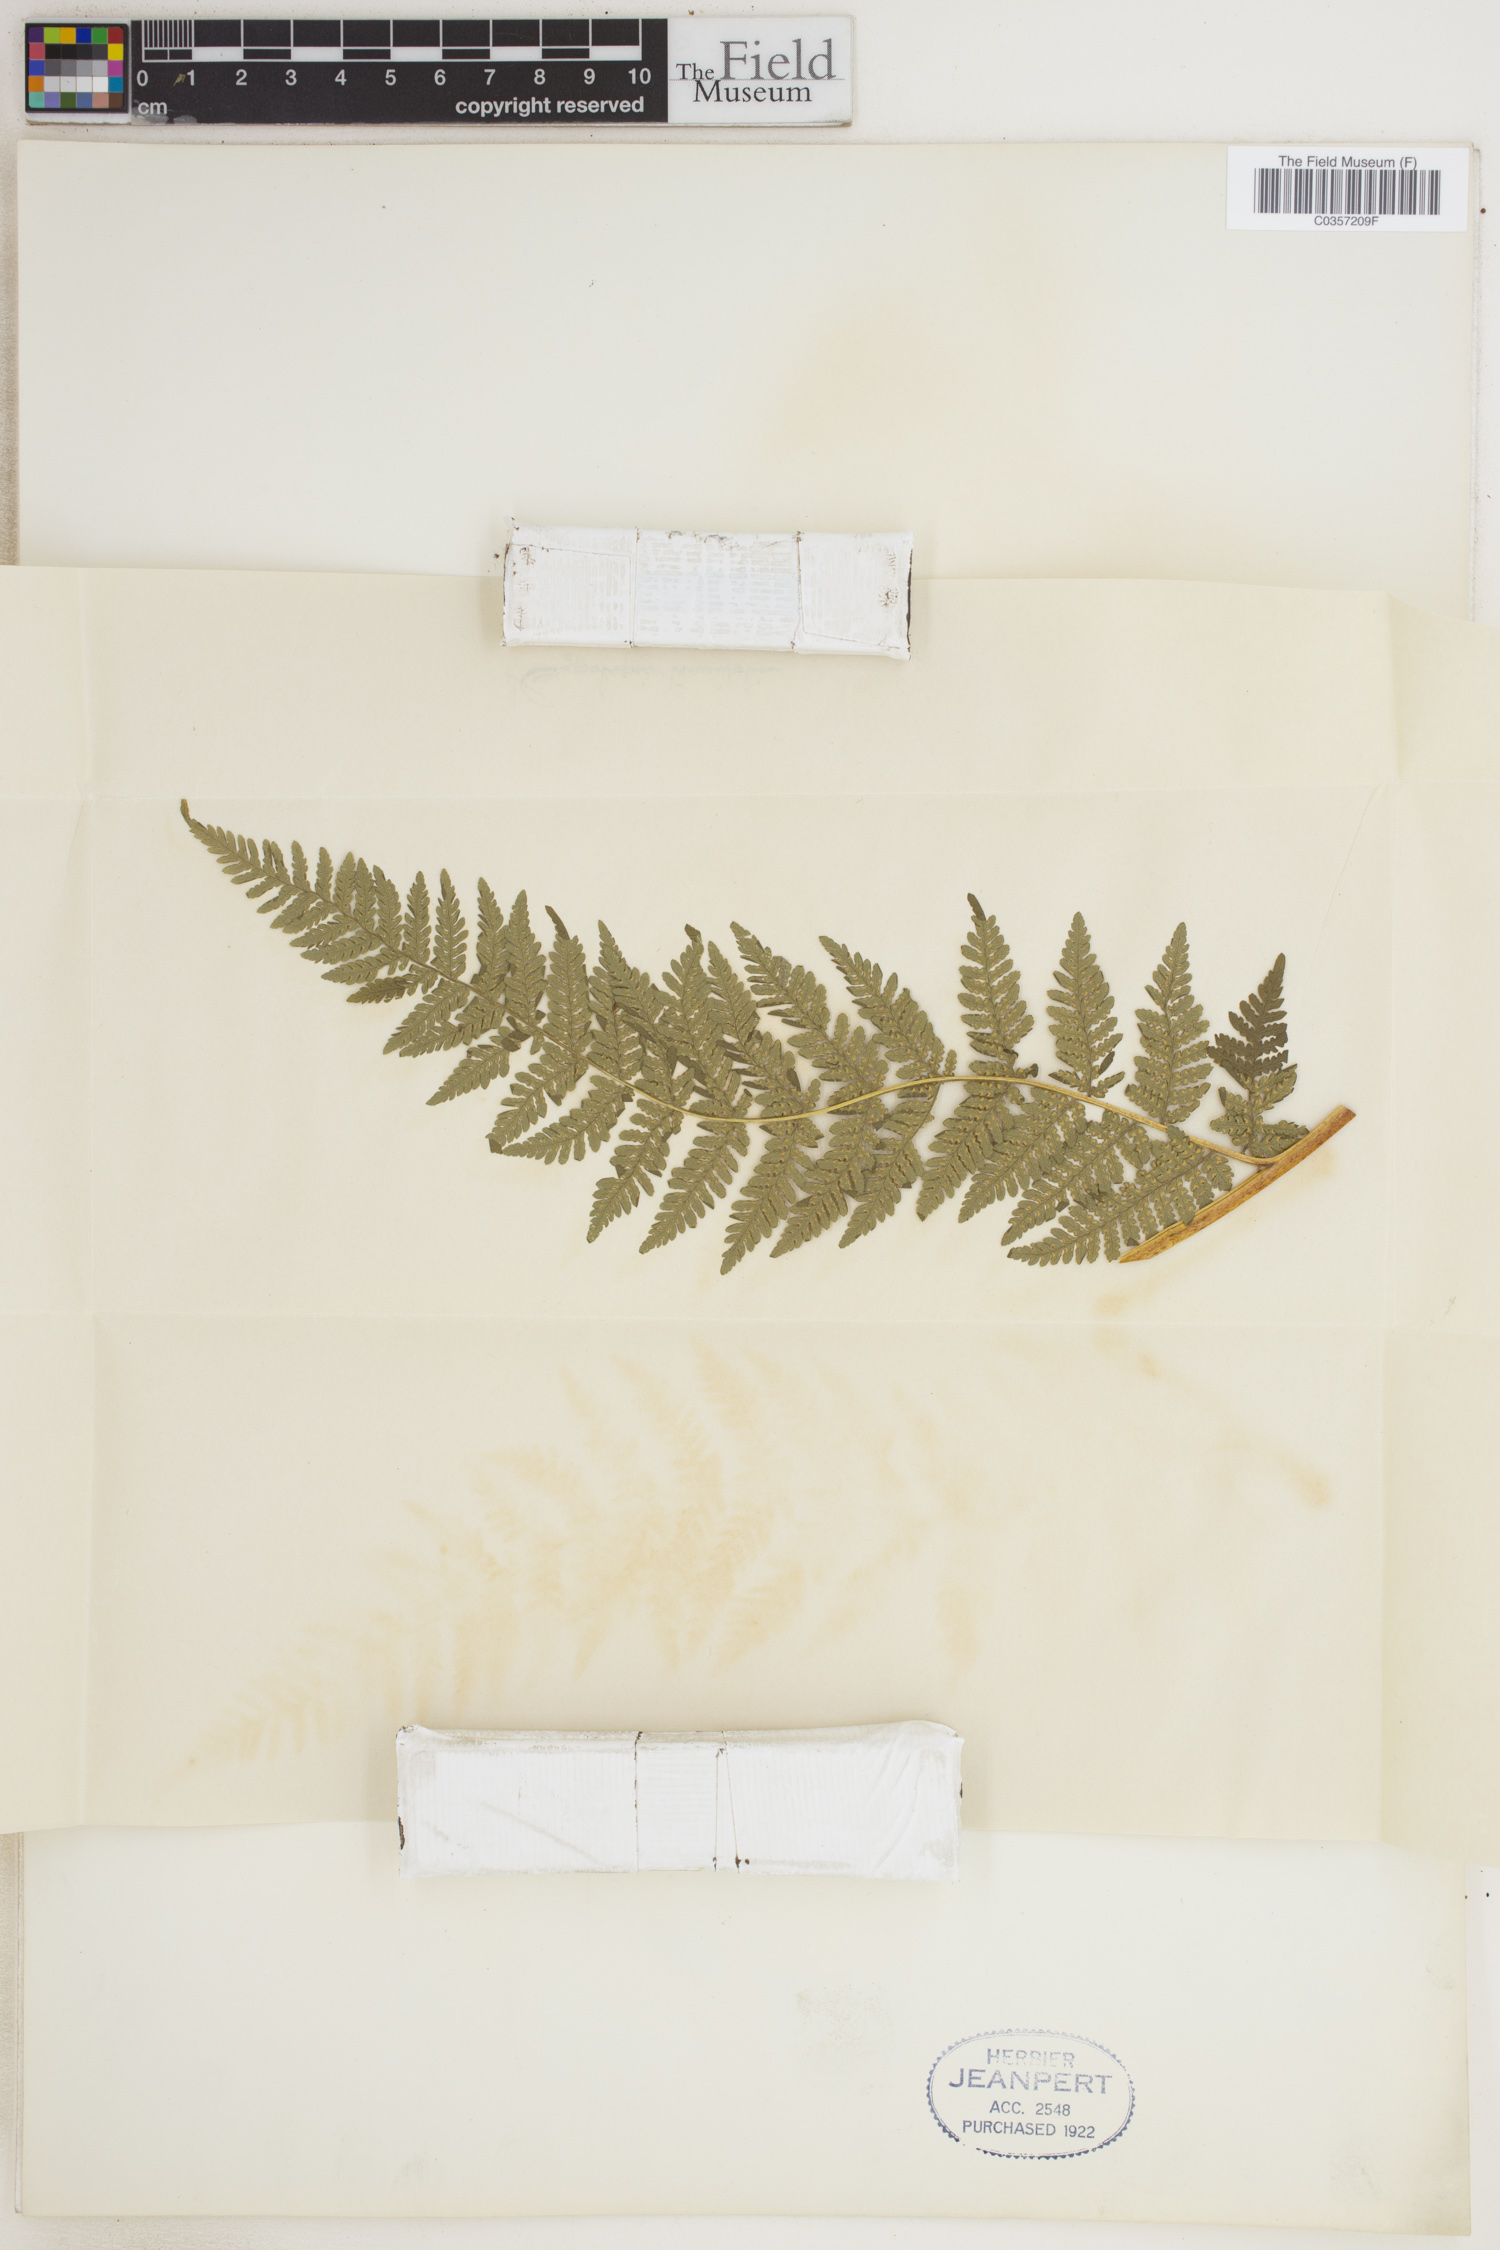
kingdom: Plantae
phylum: Tracheophyta
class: Polypodiopsida
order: Polypodiales
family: Dennstaedtiaceae
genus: Hypolepis
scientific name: Hypolepis tenuifolia
